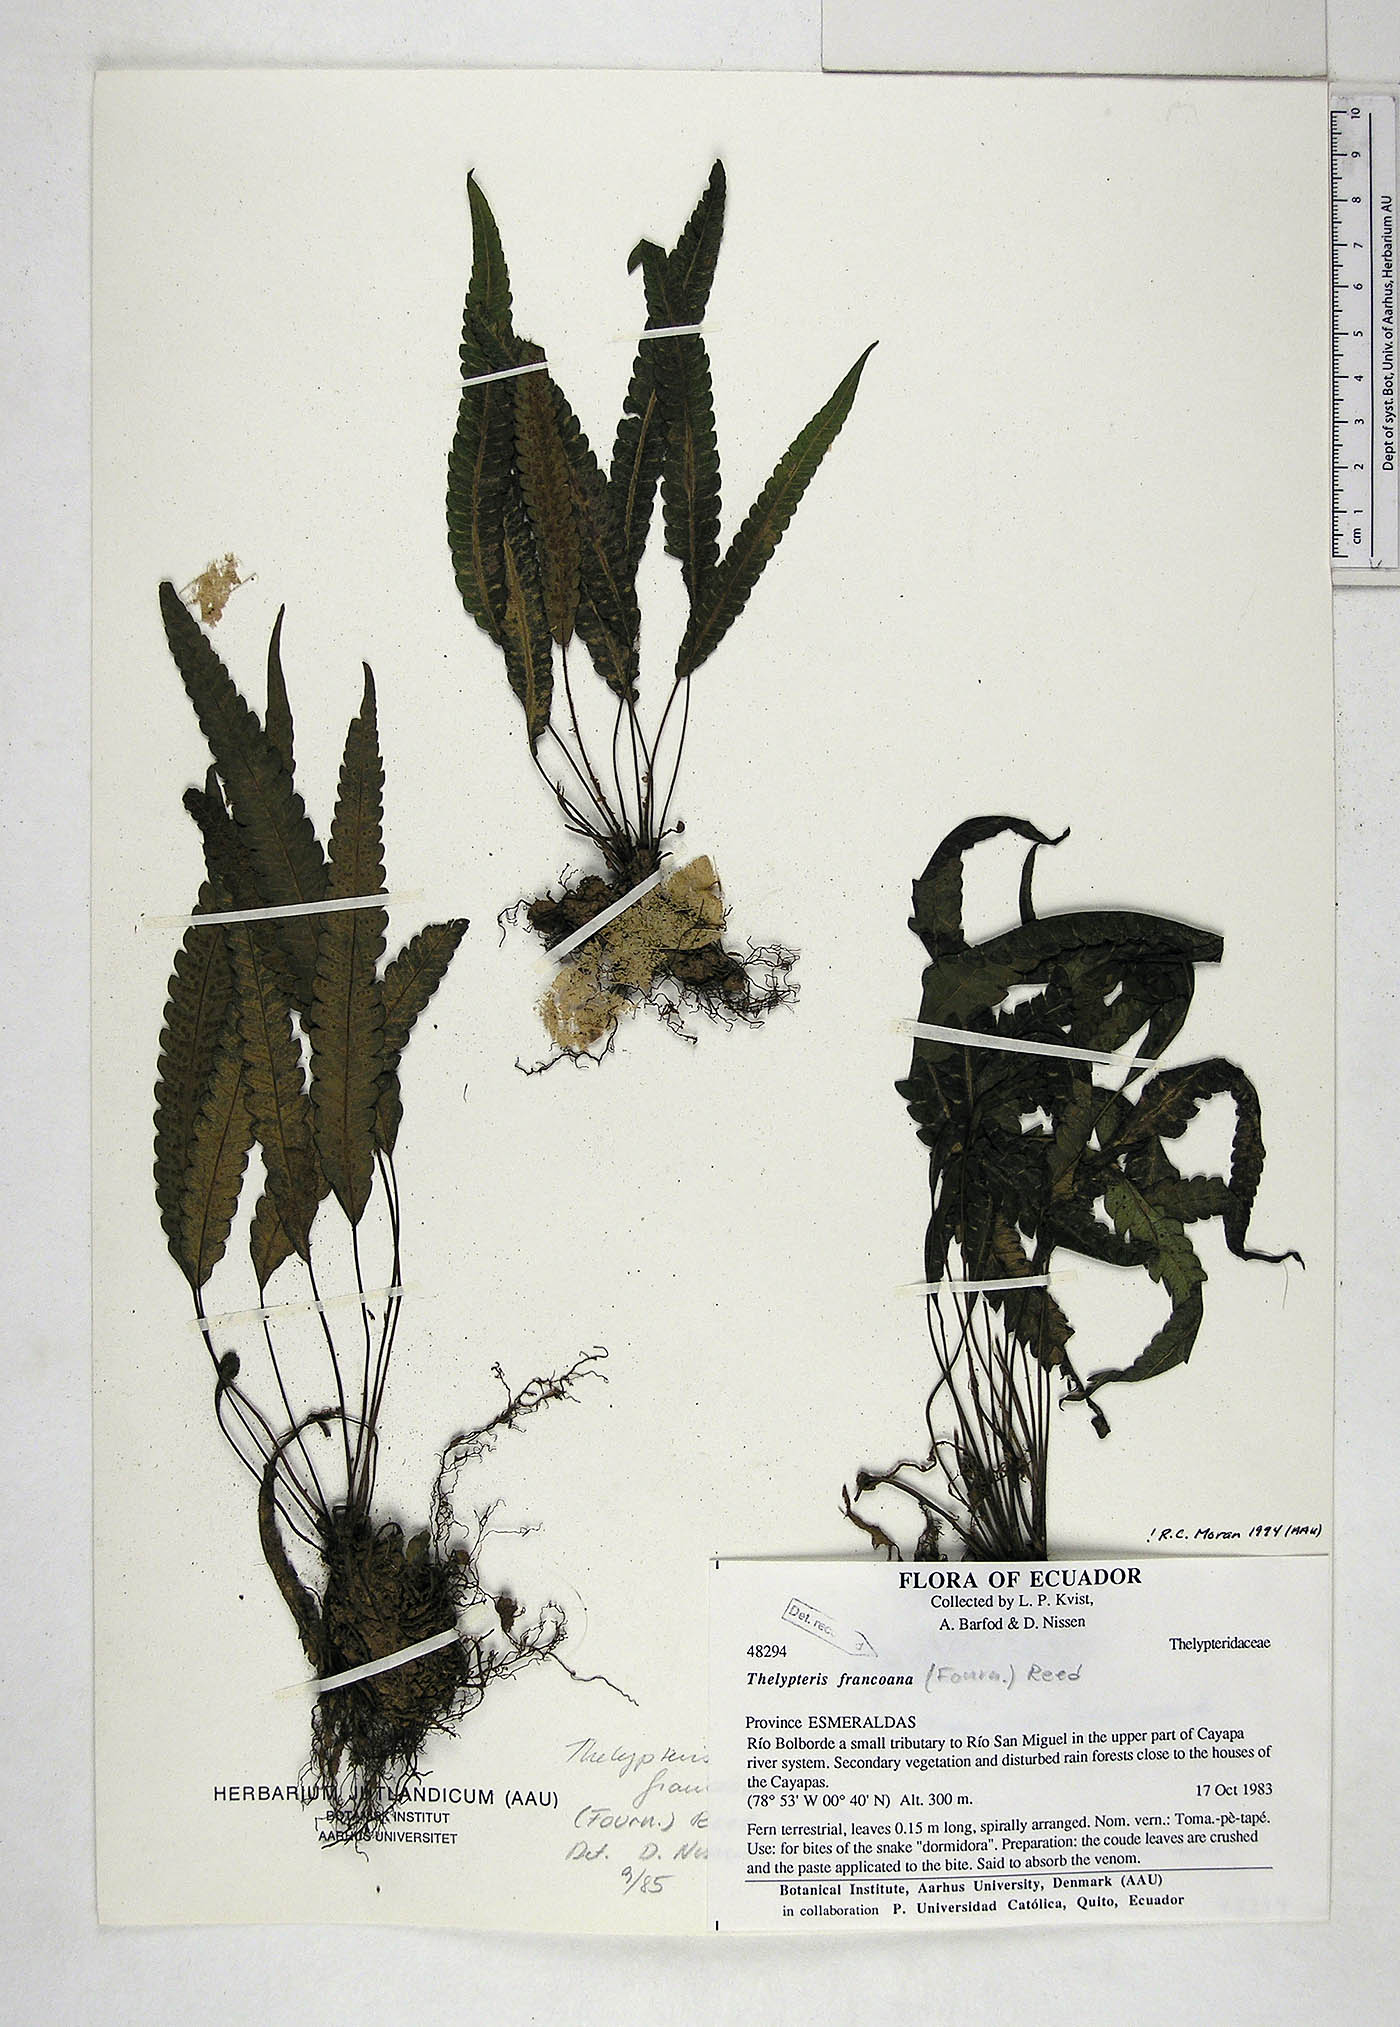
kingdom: Plantae
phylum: Tracheophyta
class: Polypodiopsida
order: Polypodiales
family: Thelypteridaceae
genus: Goniopteris
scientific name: Goniopteris francoana
